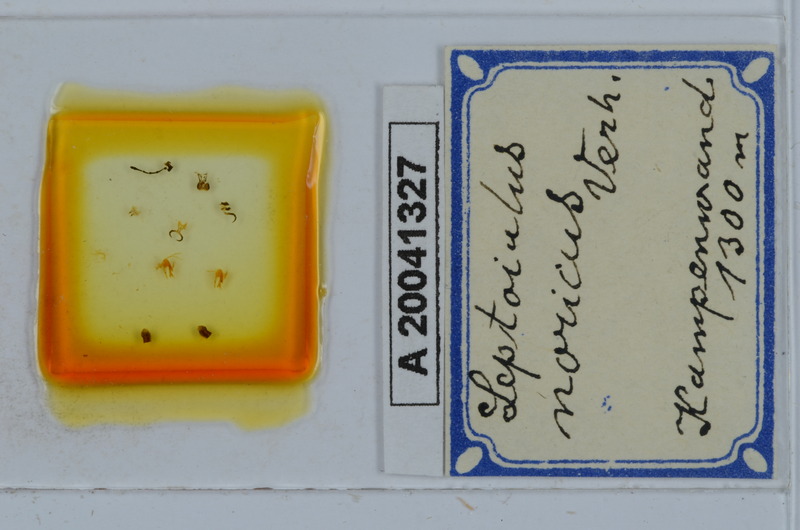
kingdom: Animalia
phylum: Arthropoda
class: Diplopoda
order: Julida
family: Julidae
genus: Leptoiulus
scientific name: Leptoiulus noricus
